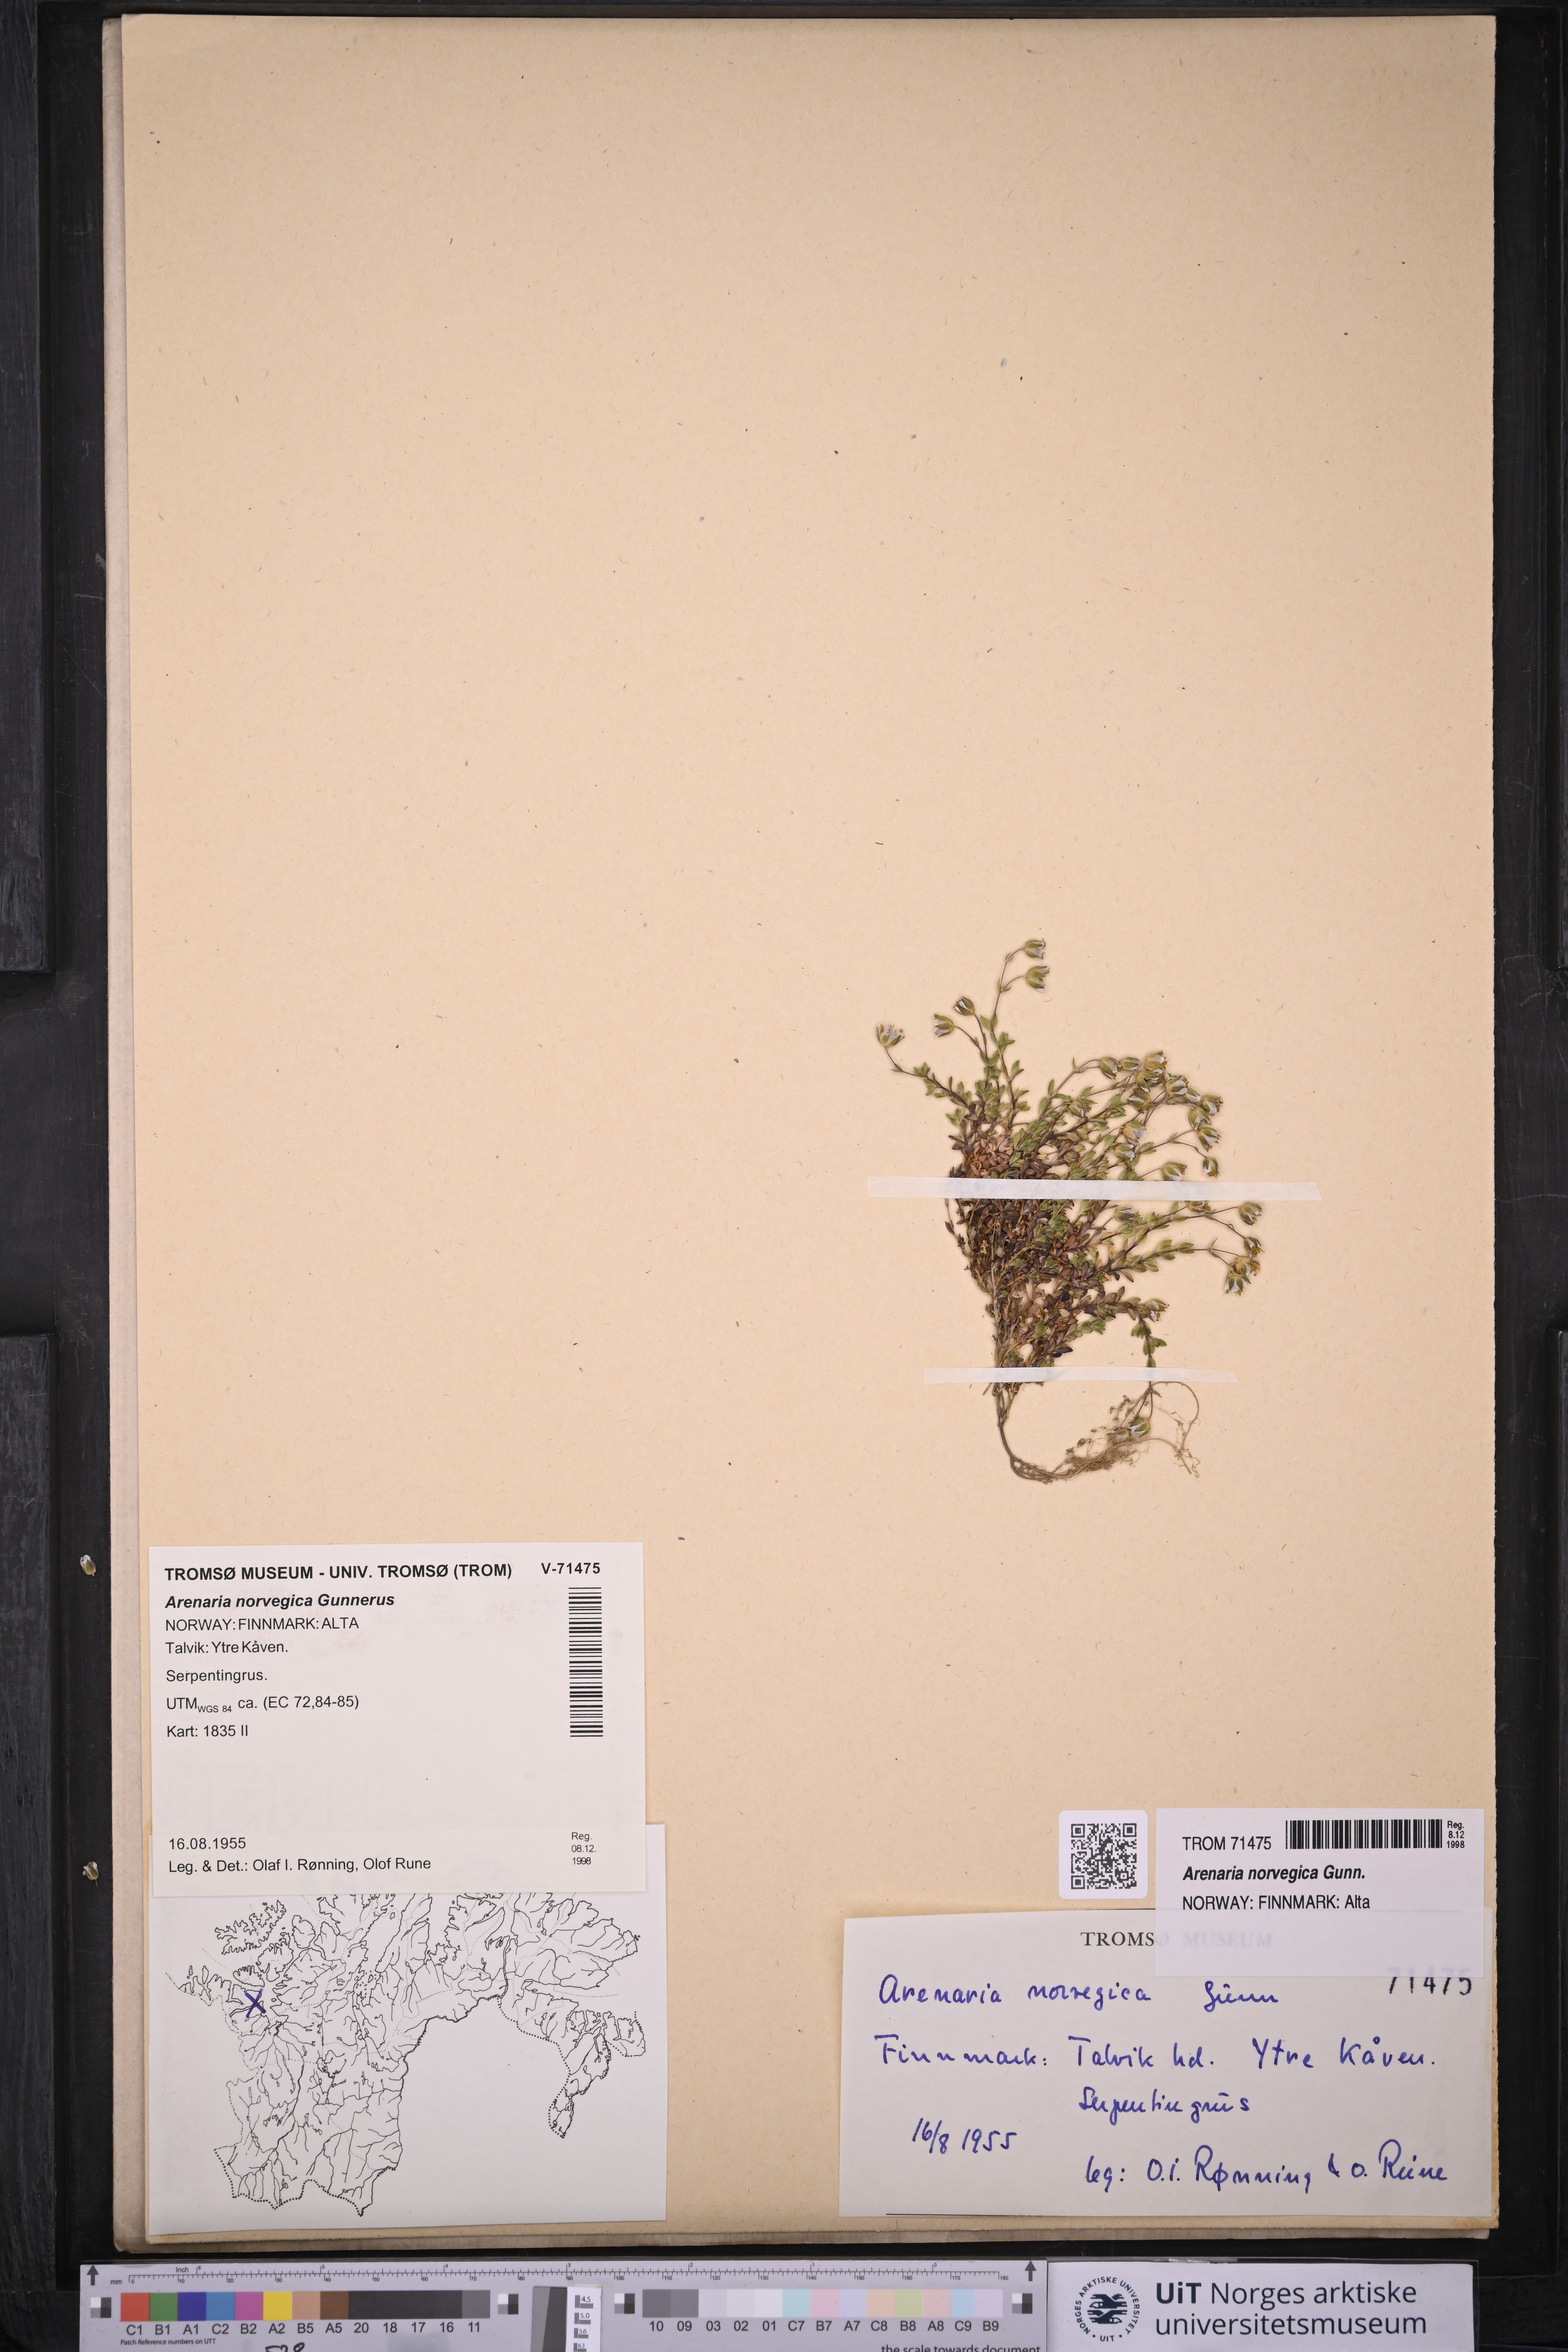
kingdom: Plantae
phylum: Tracheophyta
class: Magnoliopsida
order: Caryophyllales
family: Caryophyllaceae
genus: Arenaria
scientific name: Arenaria norvegica
